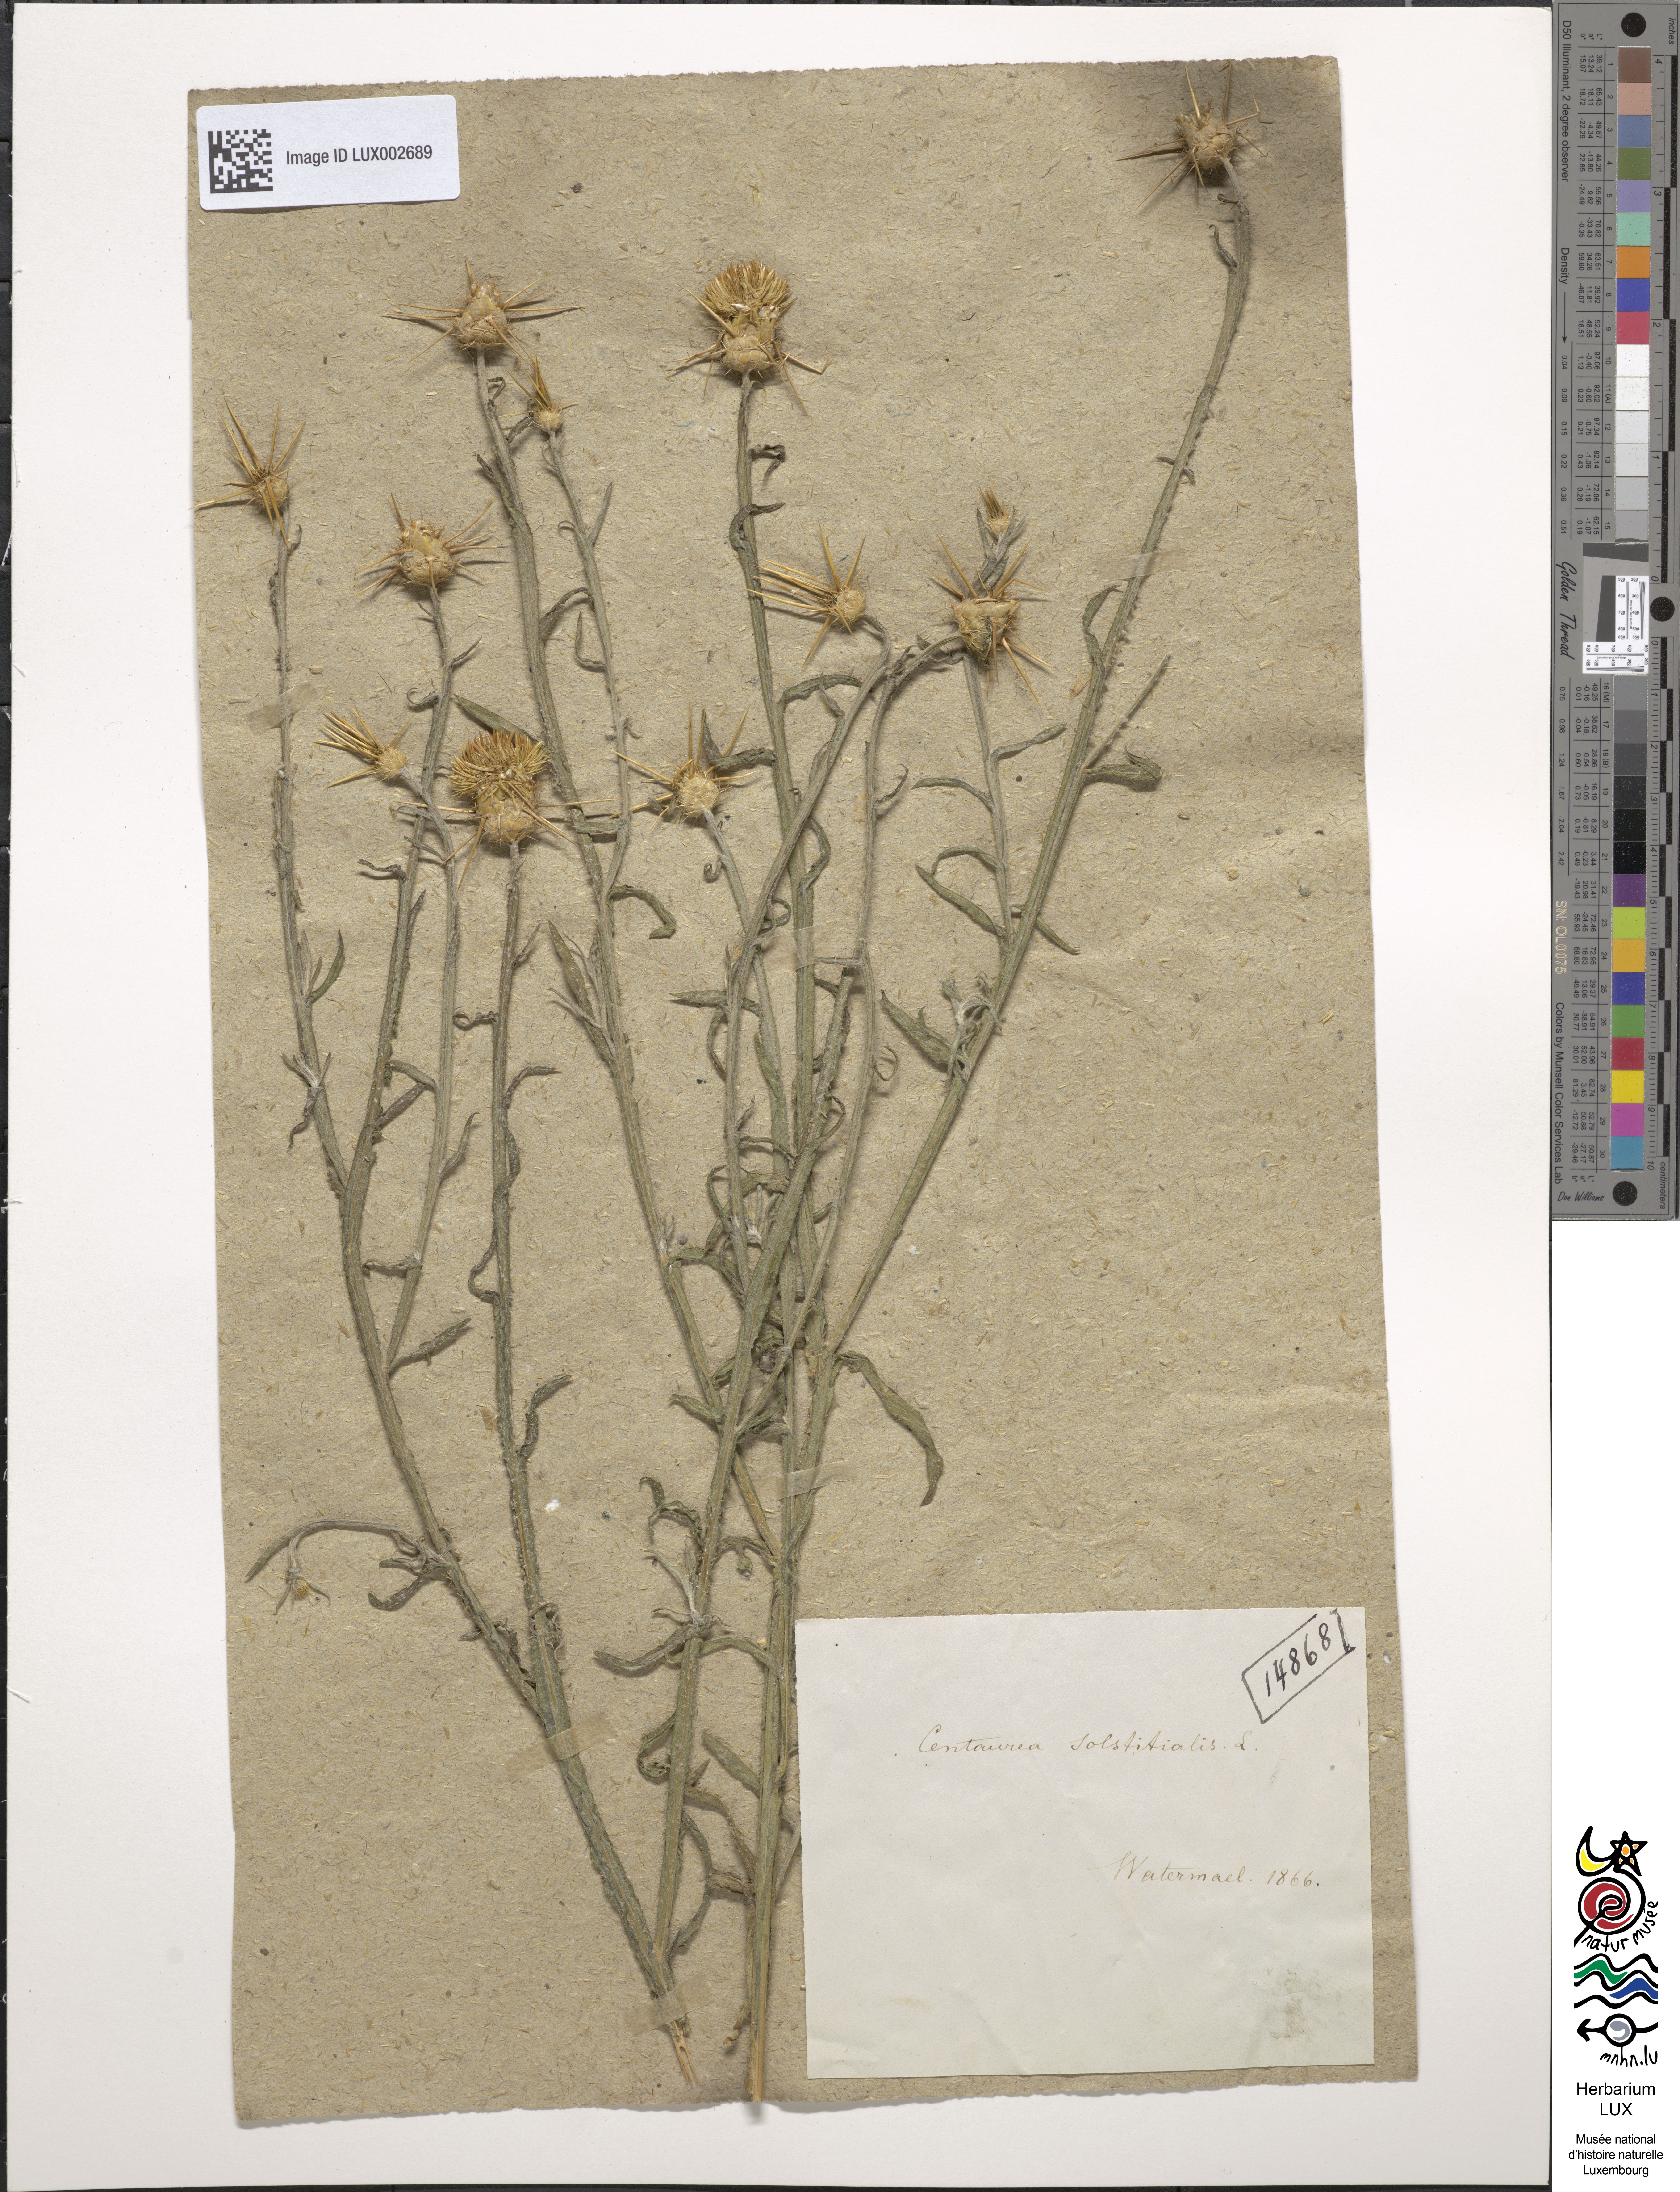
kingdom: Plantae
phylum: Tracheophyta
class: Magnoliopsida
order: Asterales
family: Asteraceae
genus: Centaurea
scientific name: Centaurea solstitialis
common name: Yellow star-thistle
